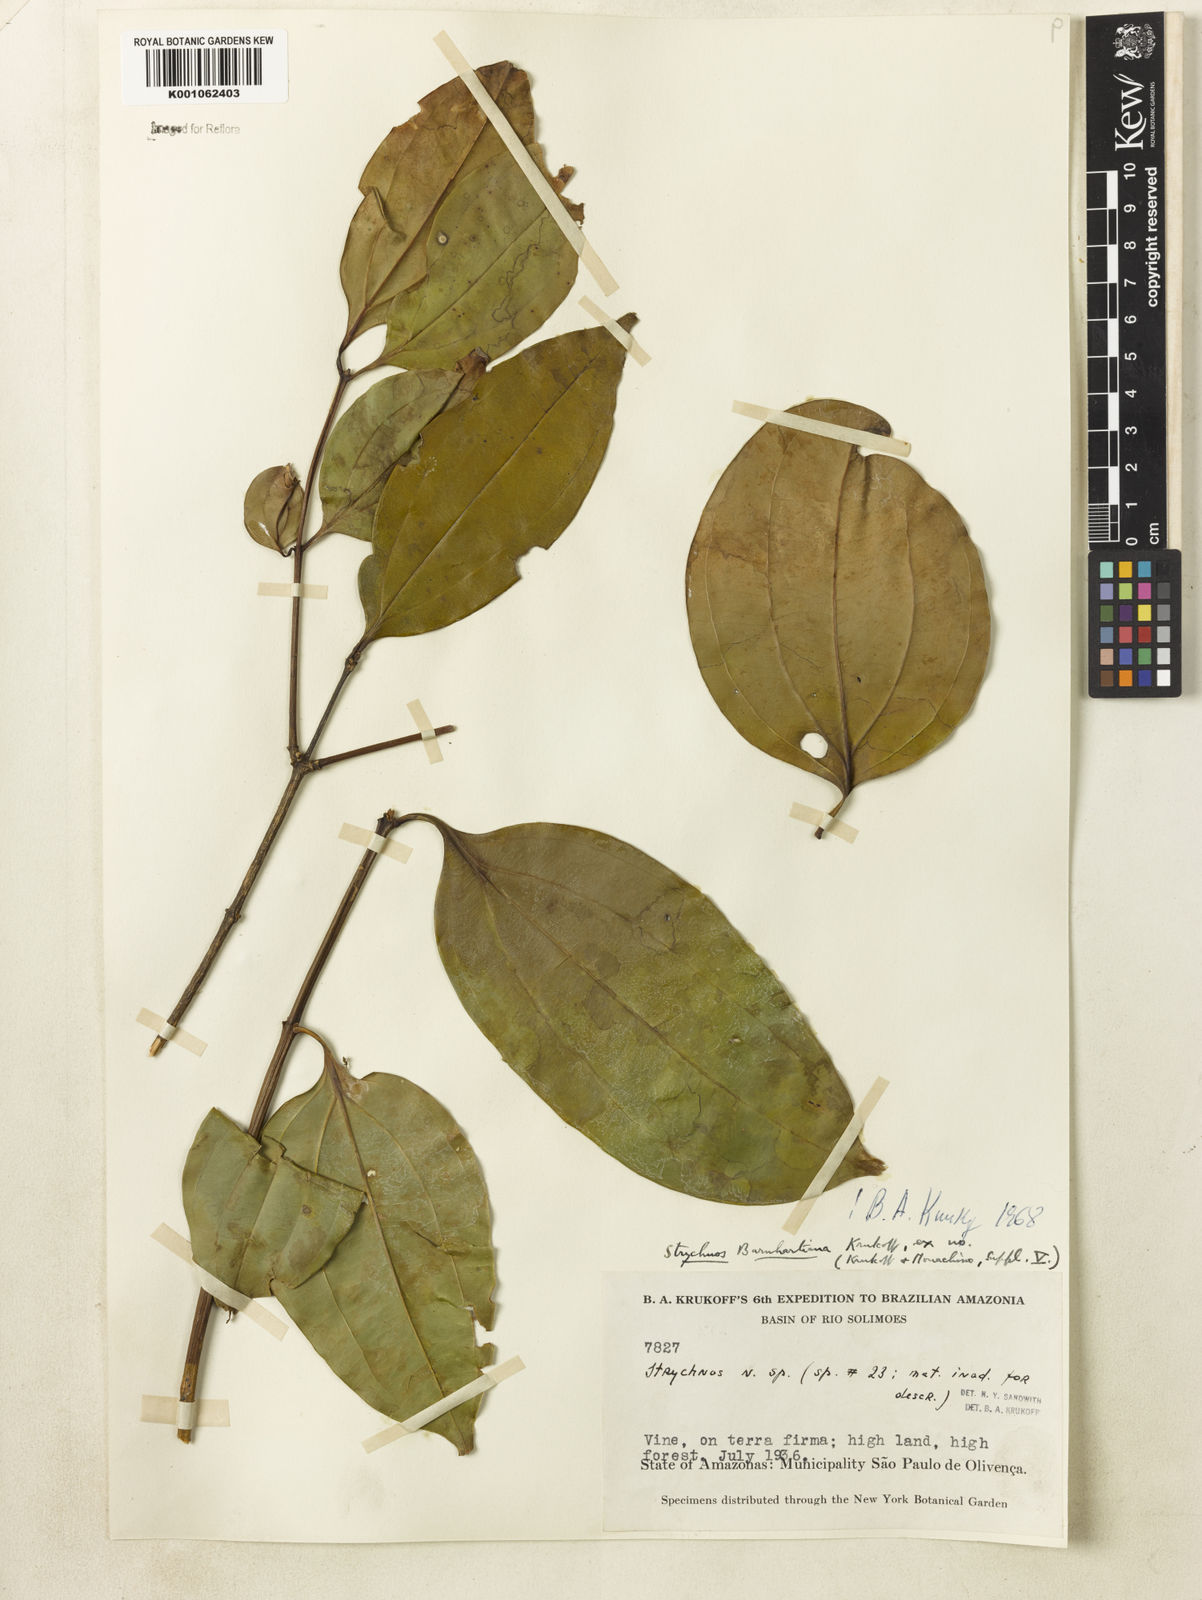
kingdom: Plantae
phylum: Tracheophyta
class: Magnoliopsida
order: Gentianales
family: Loganiaceae
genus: Strychnos
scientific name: Strychnos barnhartiana
